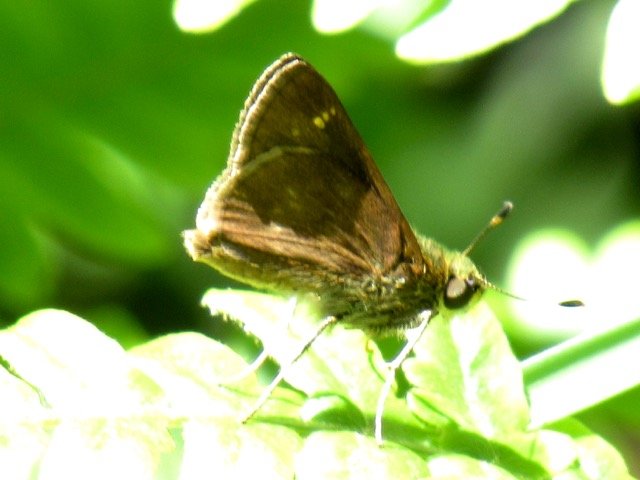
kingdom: Animalia
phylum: Arthropoda
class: Insecta
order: Lepidoptera
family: Hesperiidae
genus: Euphyes
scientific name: Euphyes
